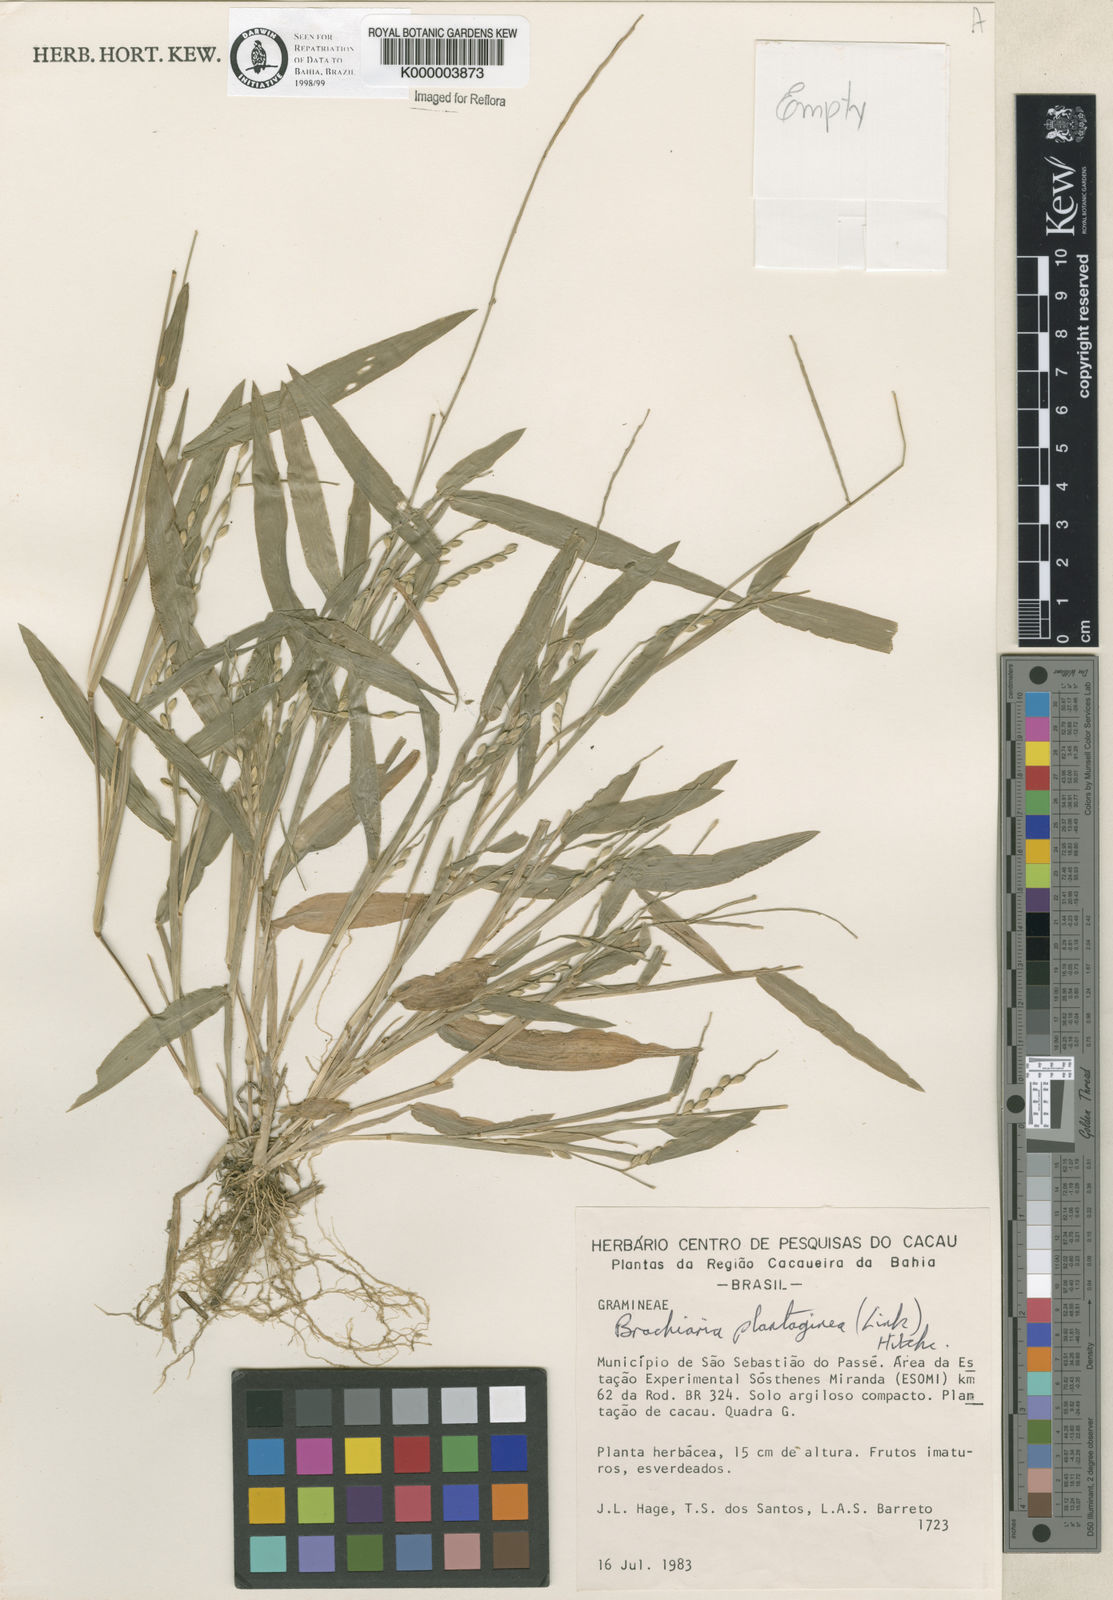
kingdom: Plantae
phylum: Tracheophyta
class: Liliopsida
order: Poales
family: Poaceae
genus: Urochloa
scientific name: Urochloa plantaginea
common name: Plantain signalgrass
